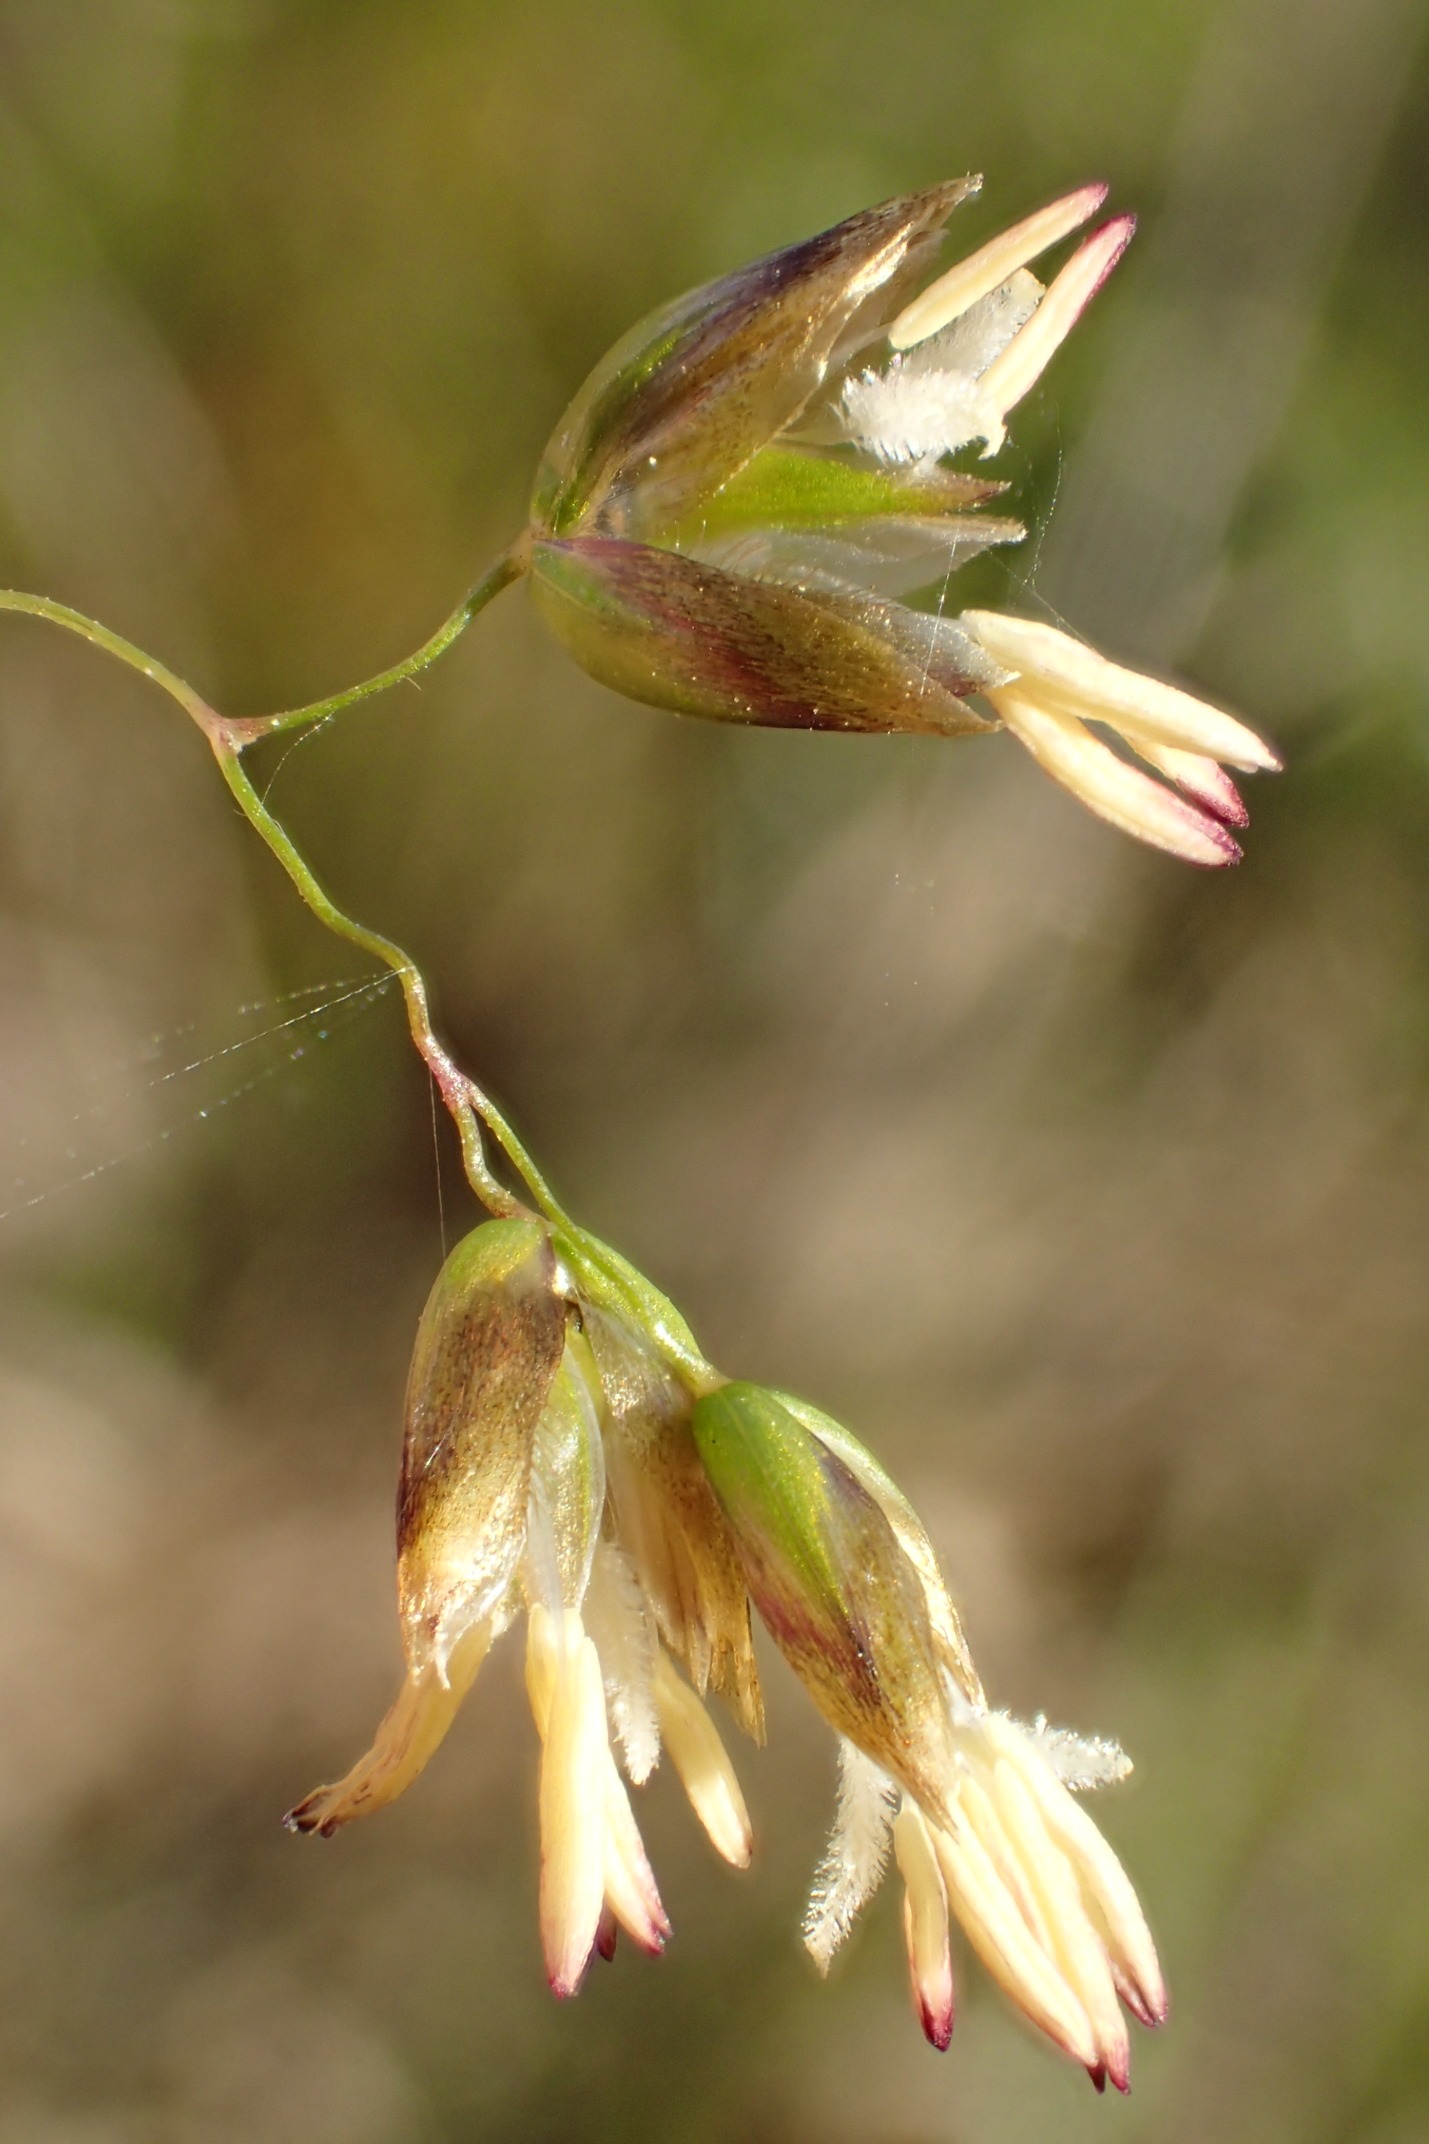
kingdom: Plantae
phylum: Tracheophyta
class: Liliopsida
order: Poales
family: Poaceae
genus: Anthoxanthum
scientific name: Anthoxanthum nitens
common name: Festgræs
